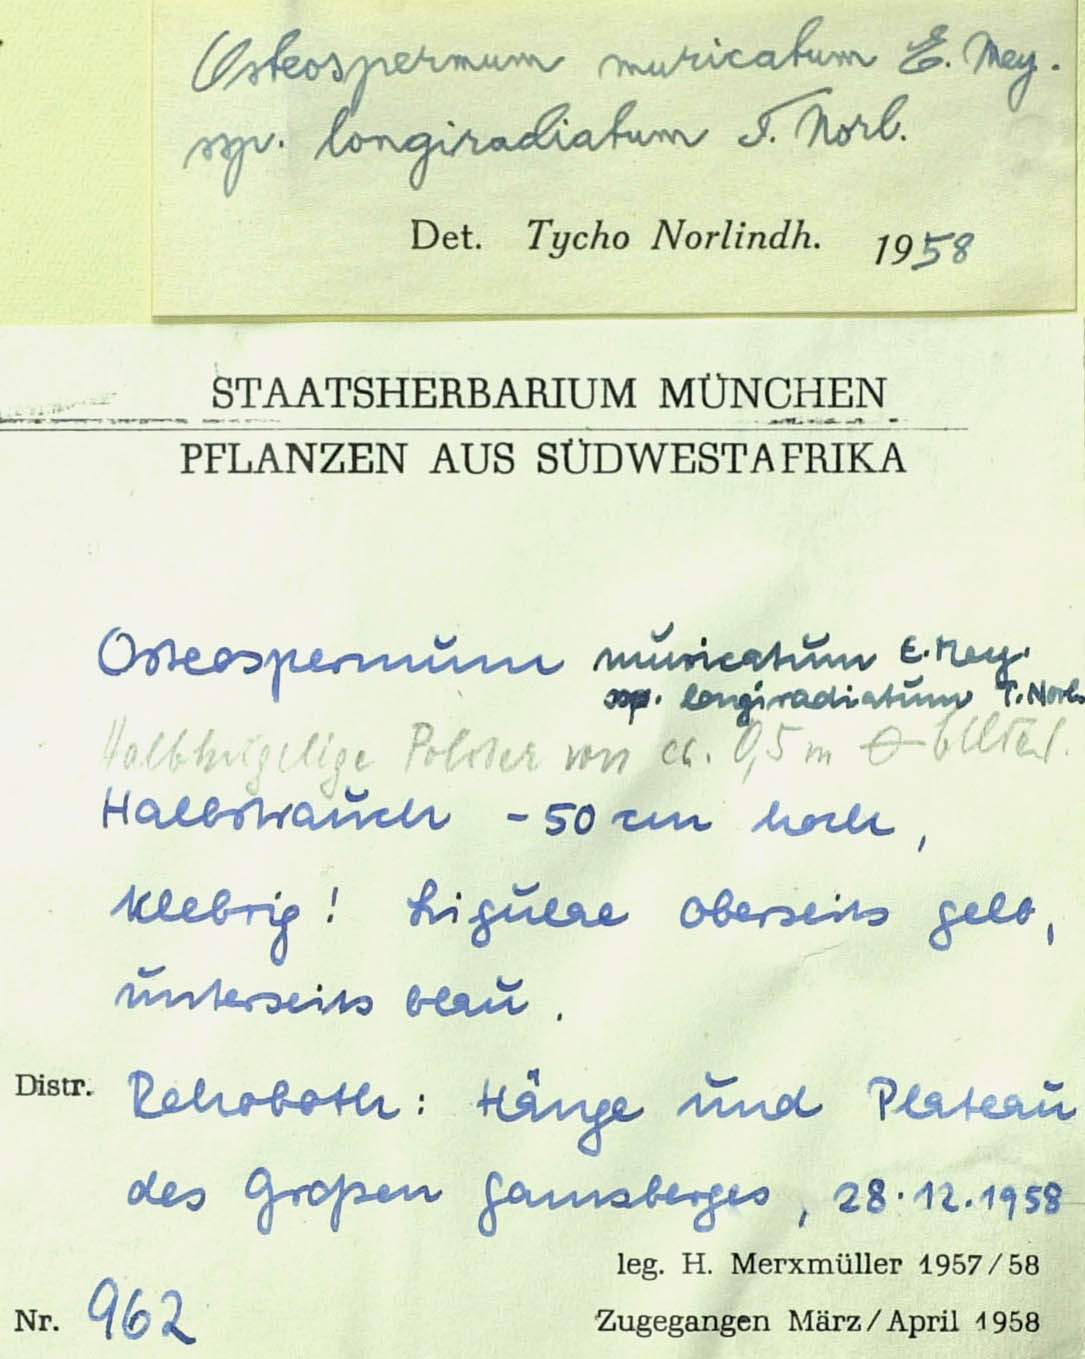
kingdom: Plantae
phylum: Tracheophyta
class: Magnoliopsida
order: Asterales
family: Asteraceae
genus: Osteospermum
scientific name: Osteospermum muricatum
